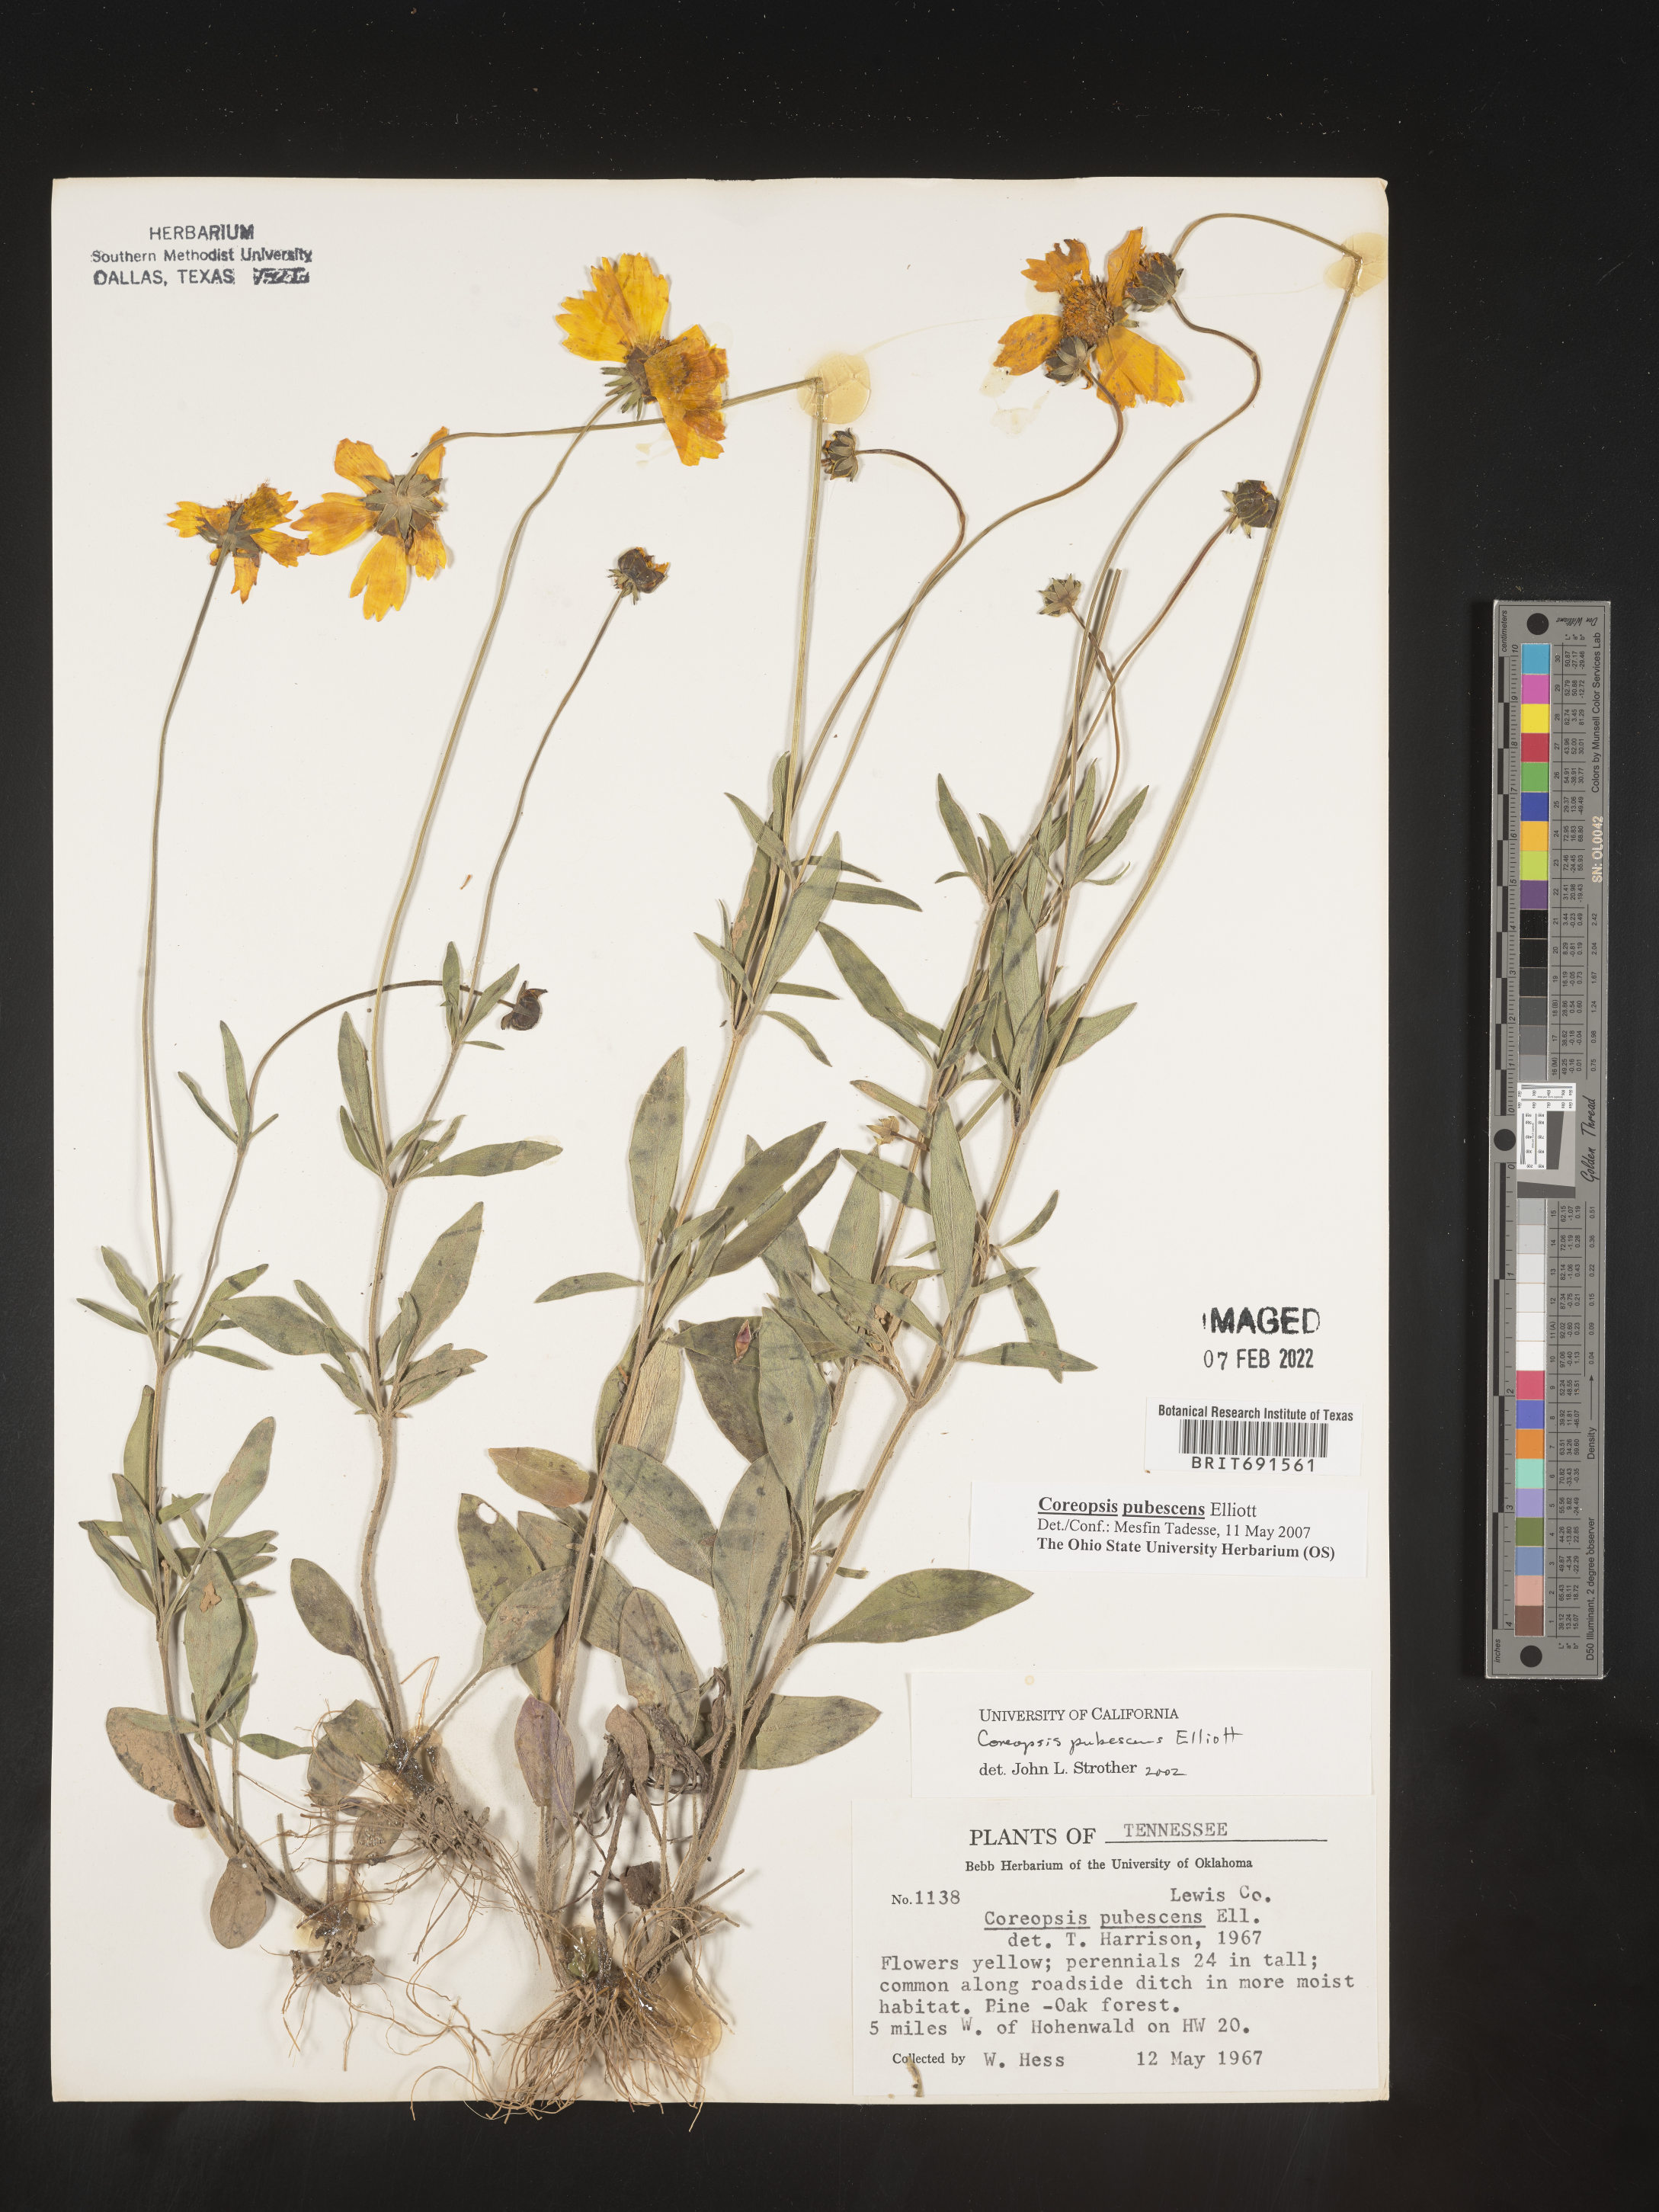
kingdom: Plantae
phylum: Tracheophyta
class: Magnoliopsida
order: Asterales
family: Asteraceae
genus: Coreopsis
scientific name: Coreopsis pubescens
